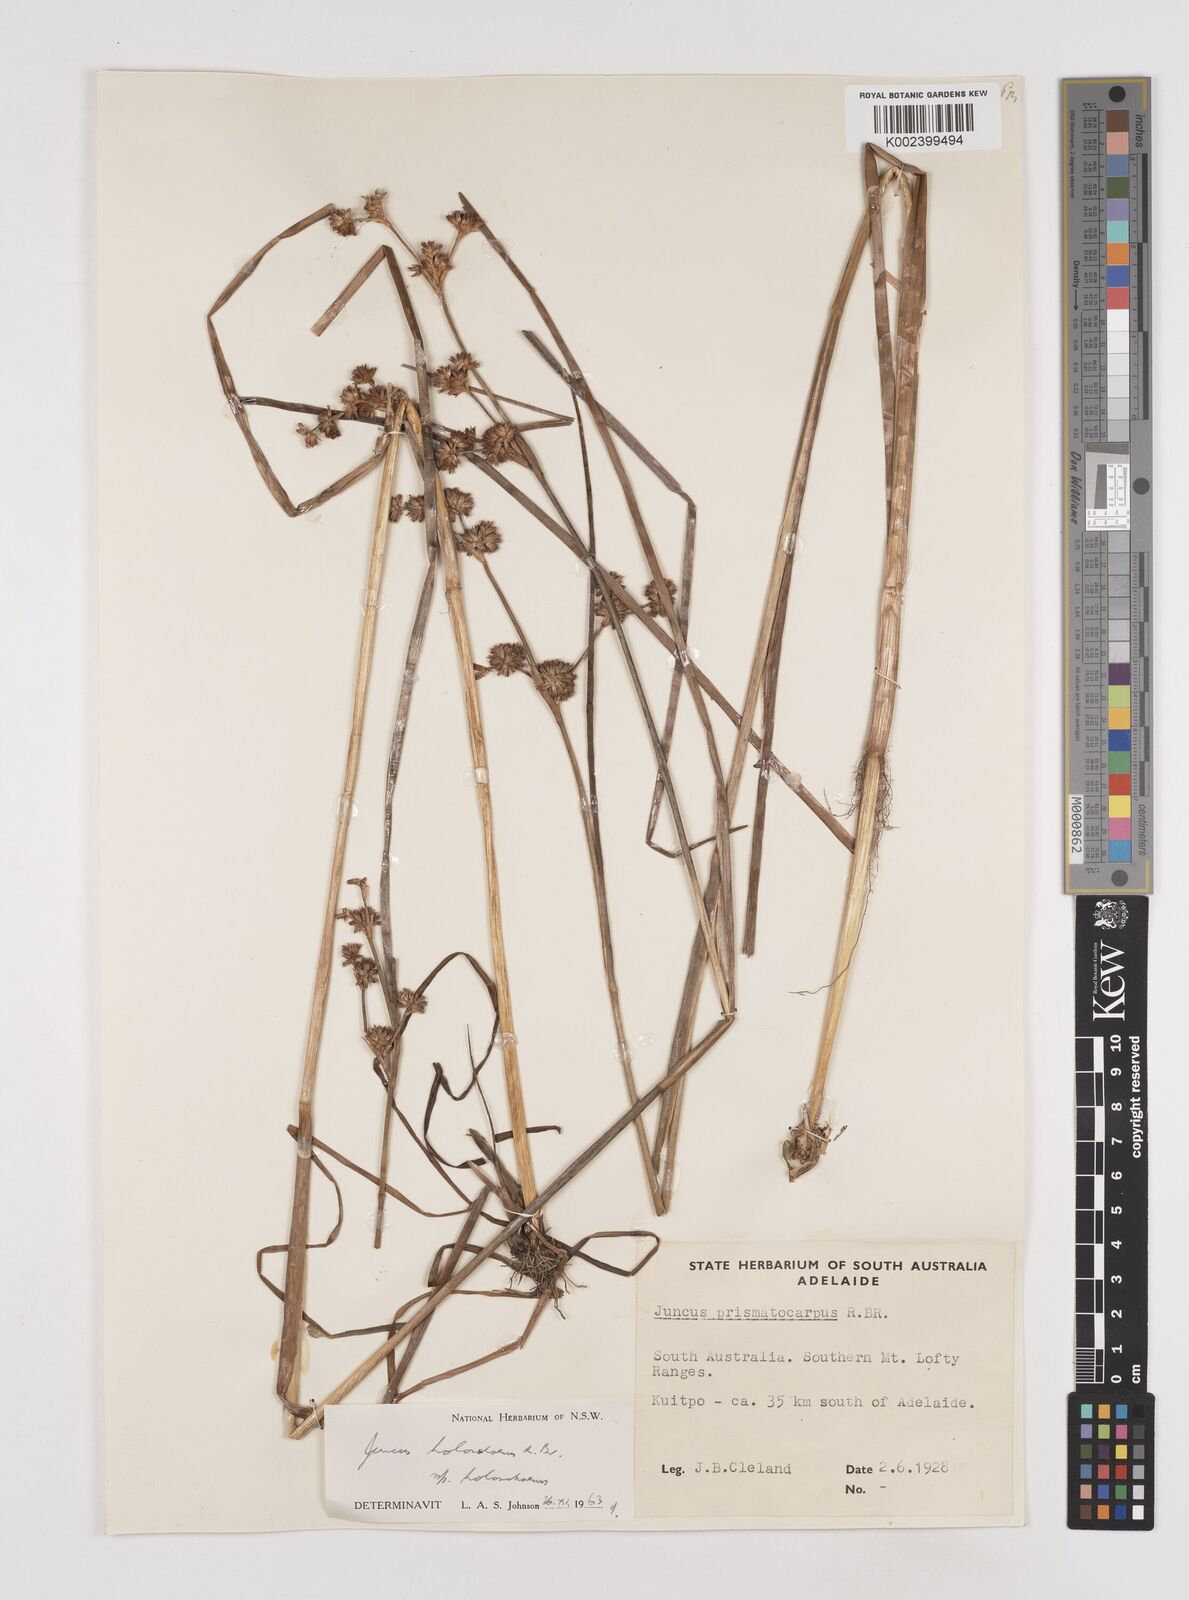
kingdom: Plantae
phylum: Tracheophyta
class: Liliopsida
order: Poales
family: Juncaceae
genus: Juncus
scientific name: Juncus holoschoenus
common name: Joint-leaf rush
